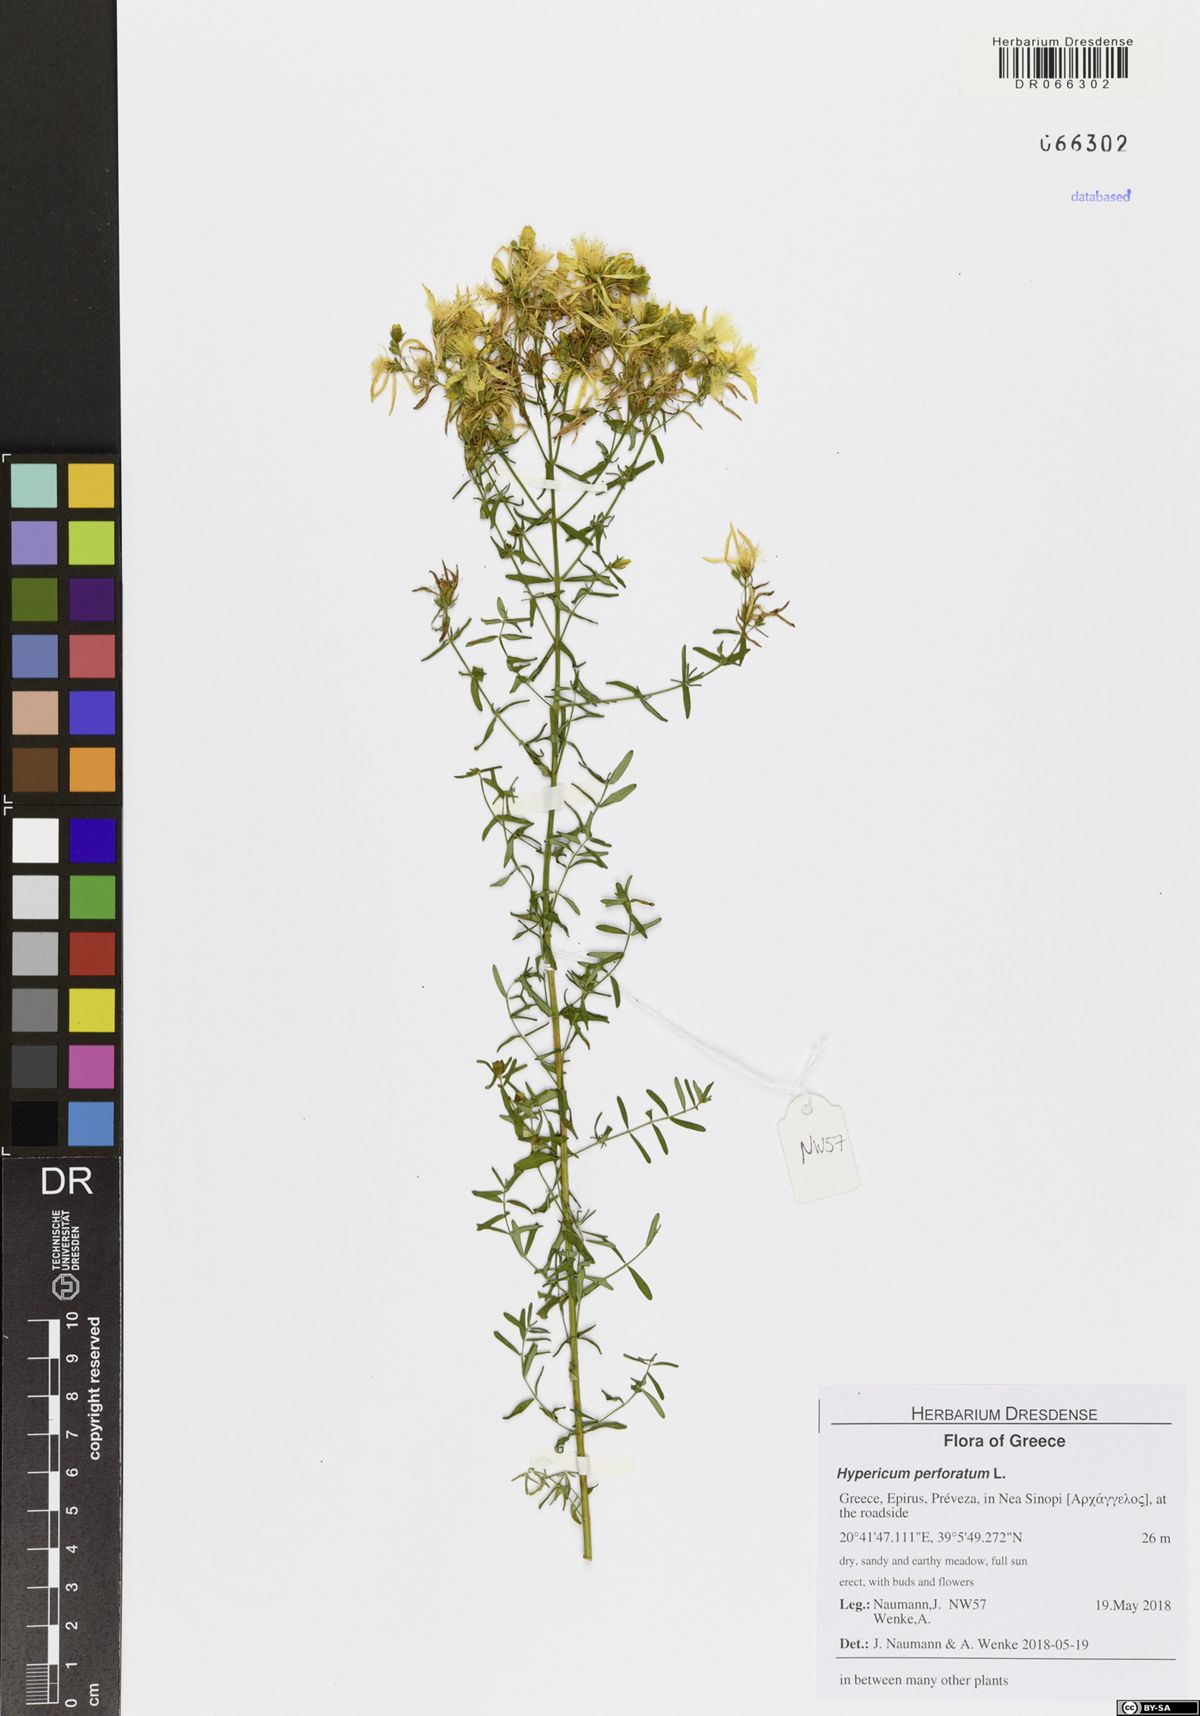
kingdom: Plantae
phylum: Tracheophyta
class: Magnoliopsida
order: Malpighiales
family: Hypericaceae
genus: Hypericum
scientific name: Hypericum perforatum
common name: Common st. johnswort
